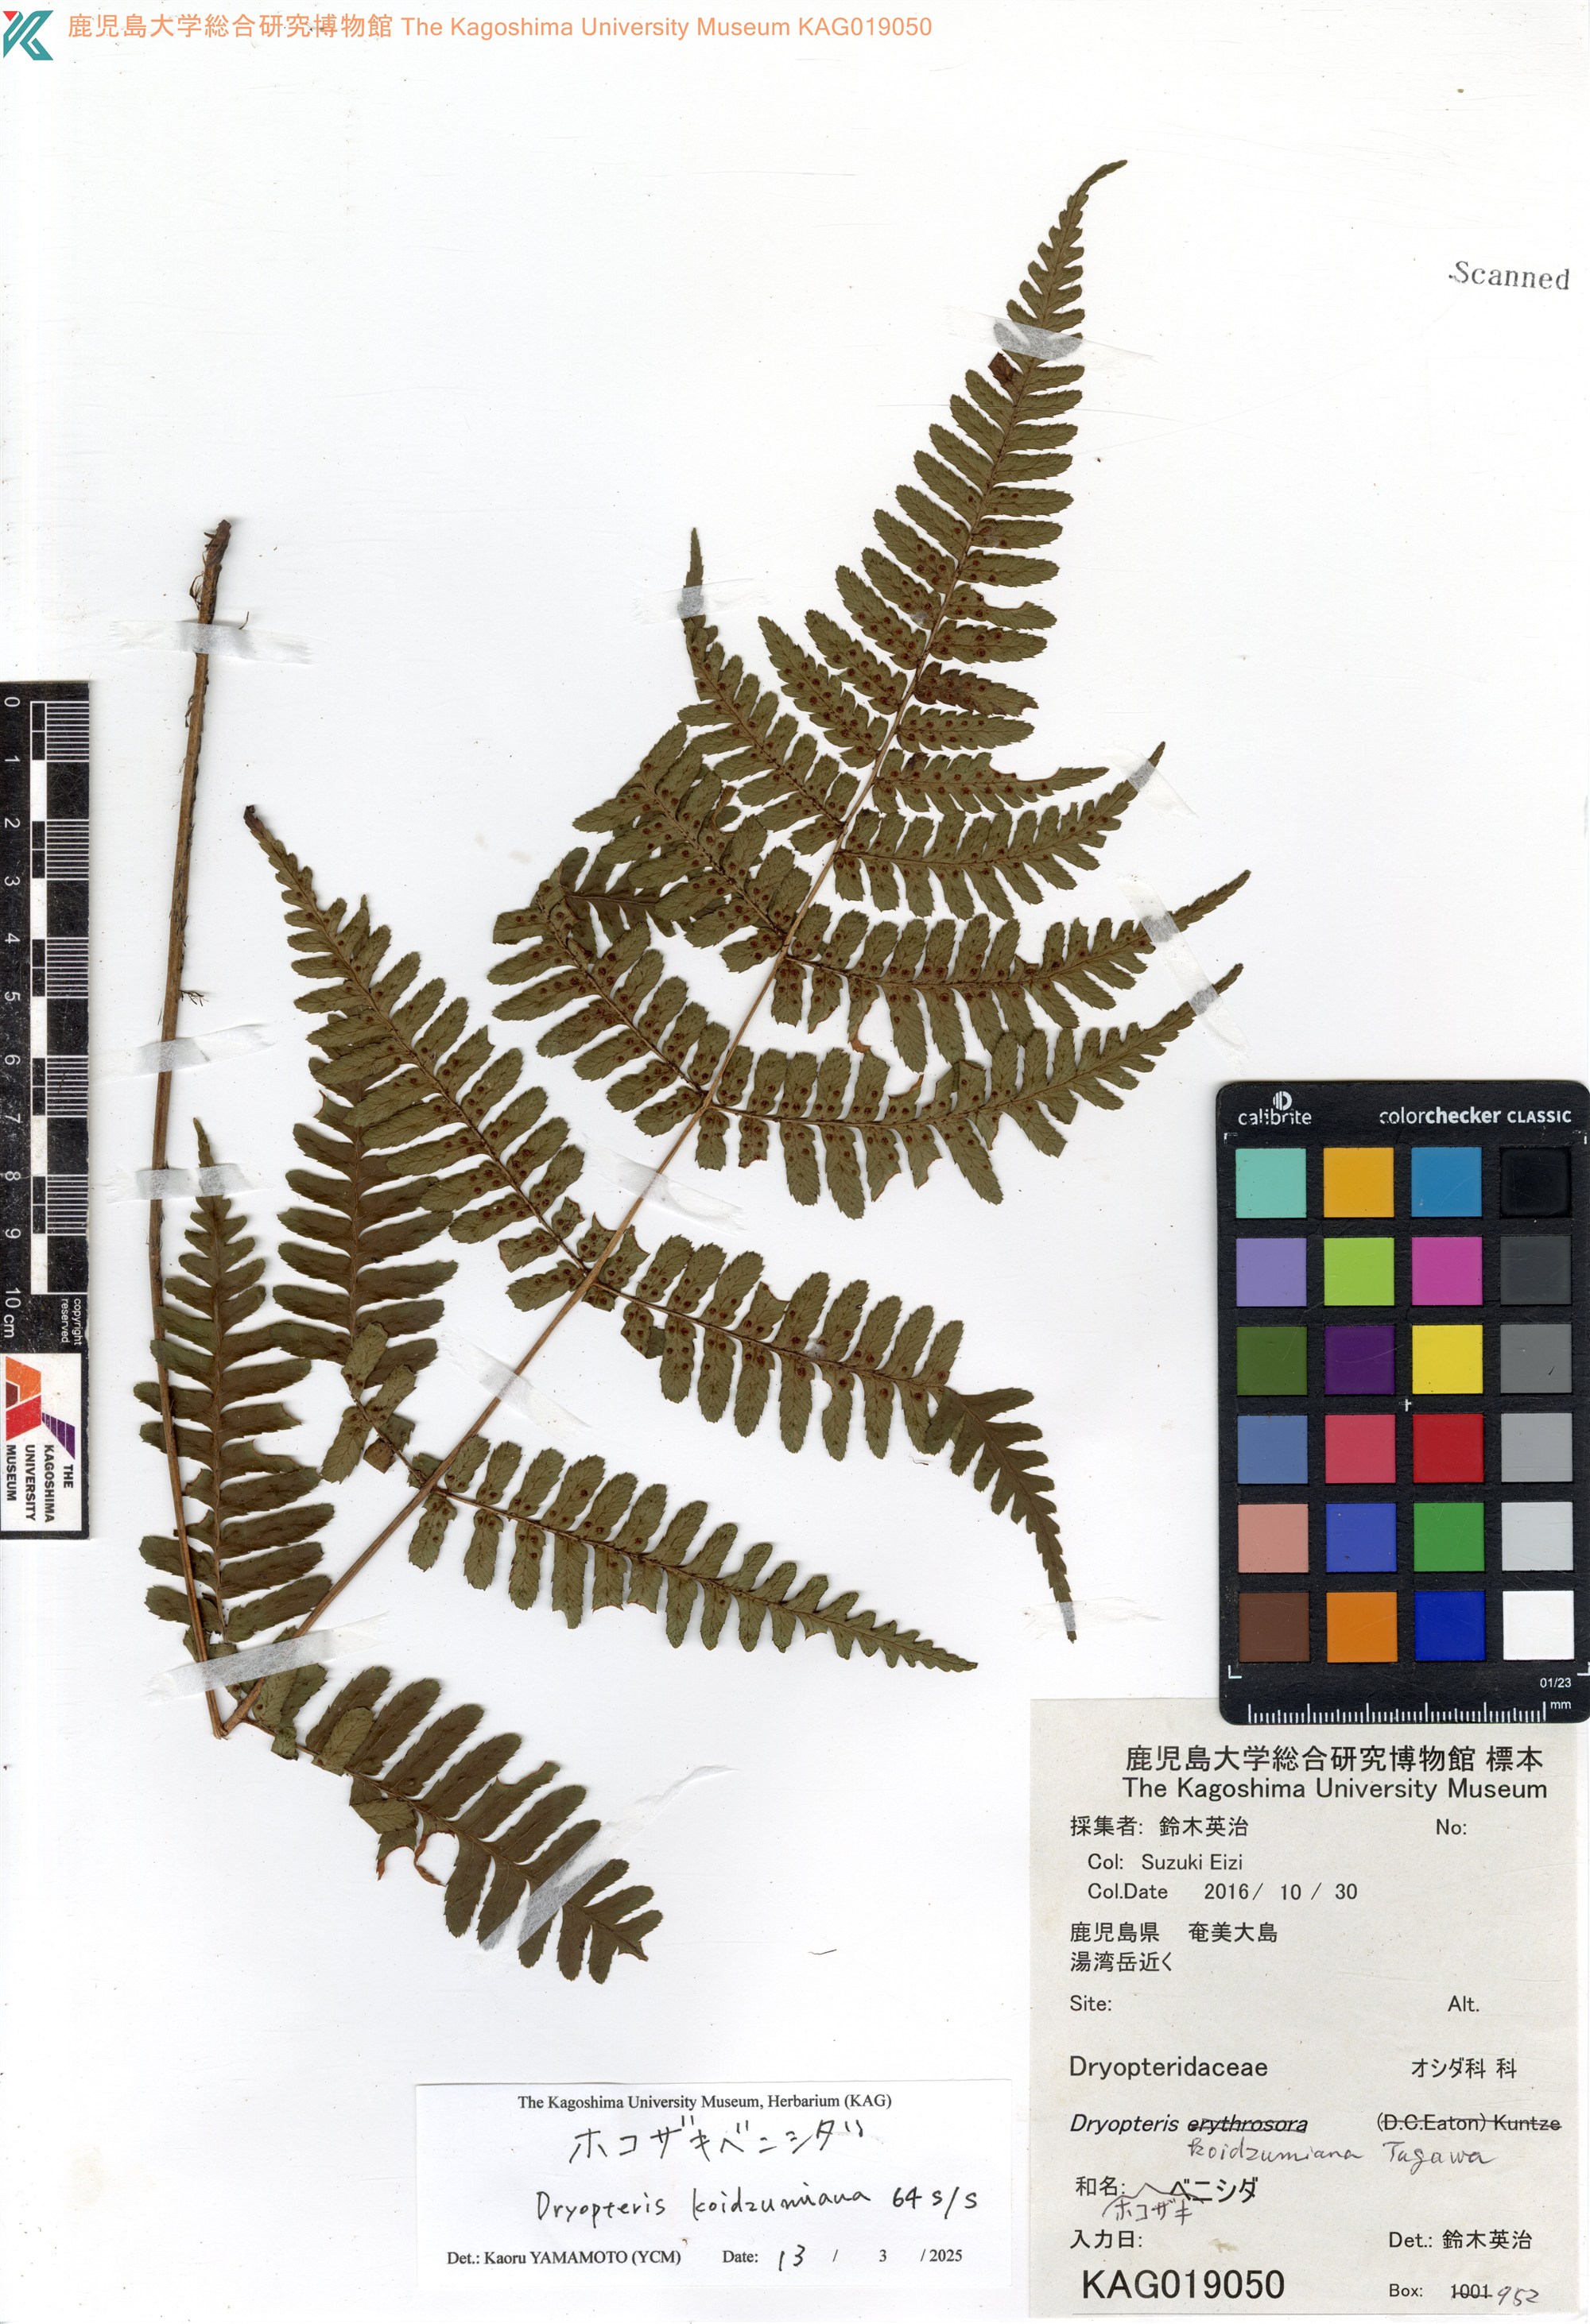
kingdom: Plantae
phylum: Tracheophyta
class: Polypodiopsida
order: Polypodiales
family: Dryopteridaceae
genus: Dryopteris
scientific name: Dryopteris koidzumiana
